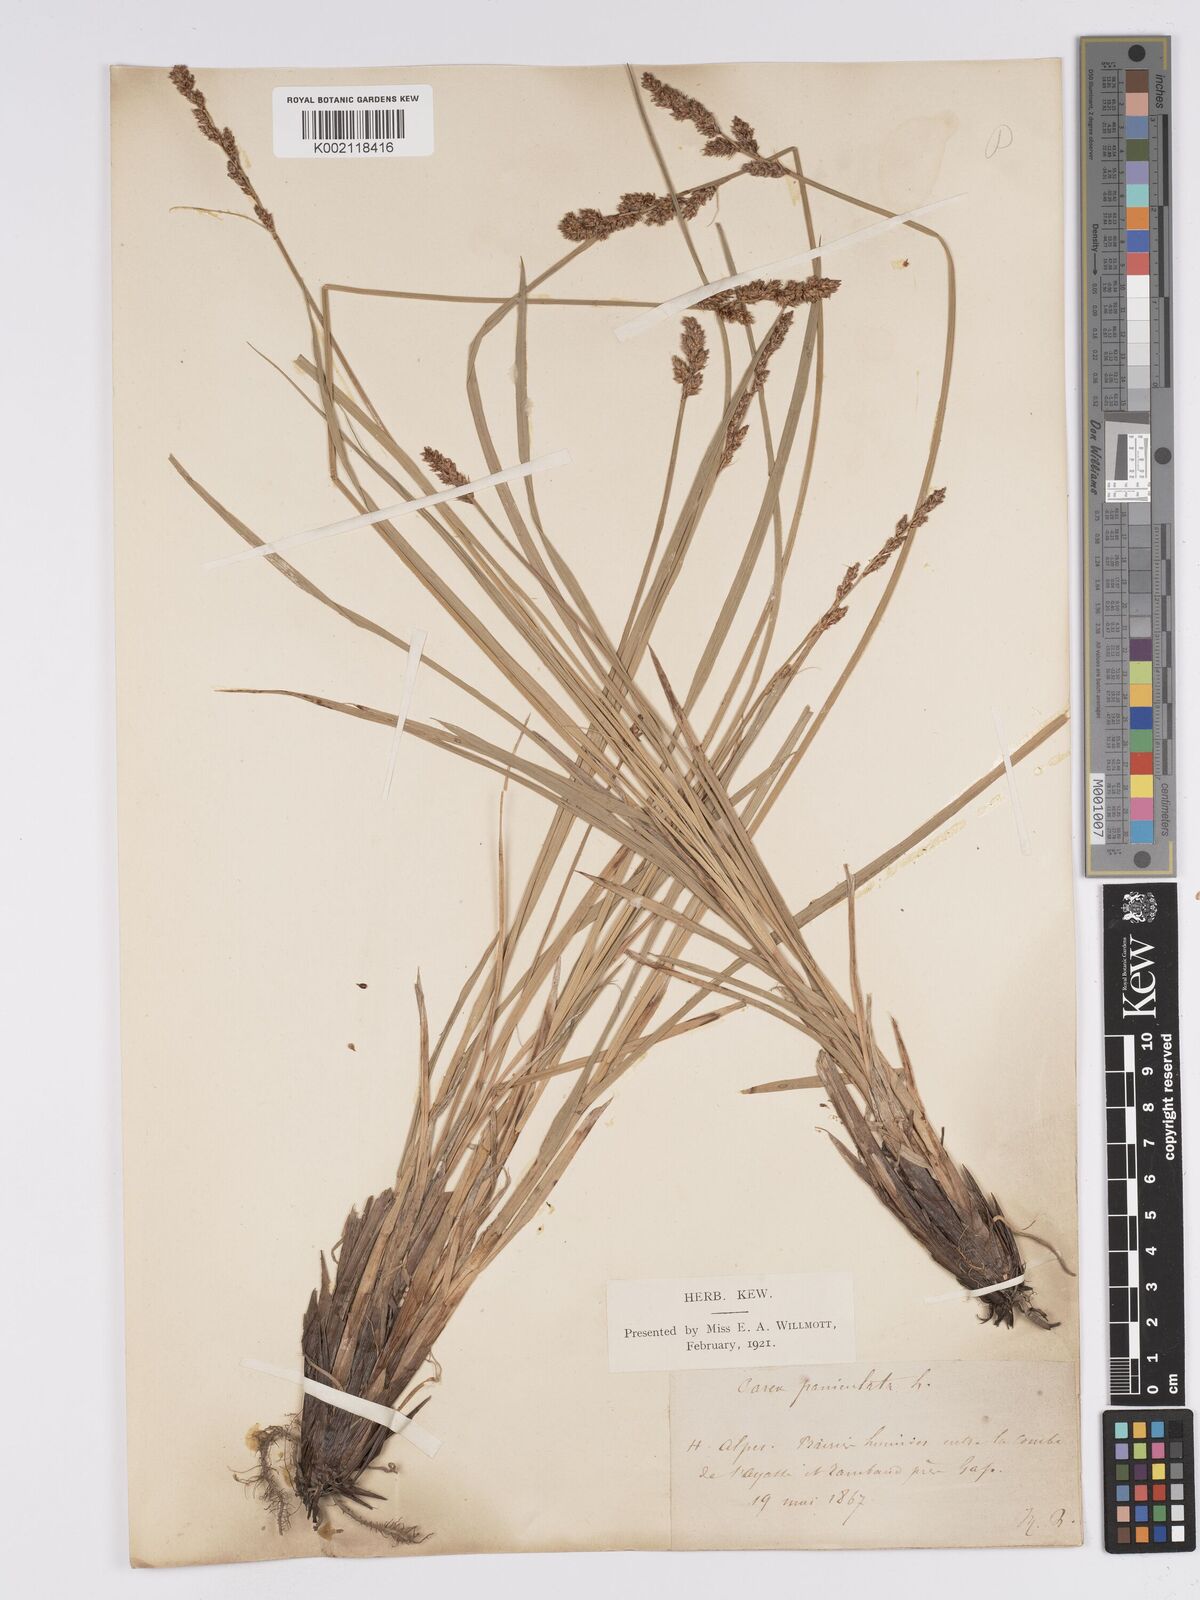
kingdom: Plantae
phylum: Tracheophyta
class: Liliopsida
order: Poales
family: Cyperaceae
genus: Carex
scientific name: Carex paniculata
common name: Greater tussock-sedge
